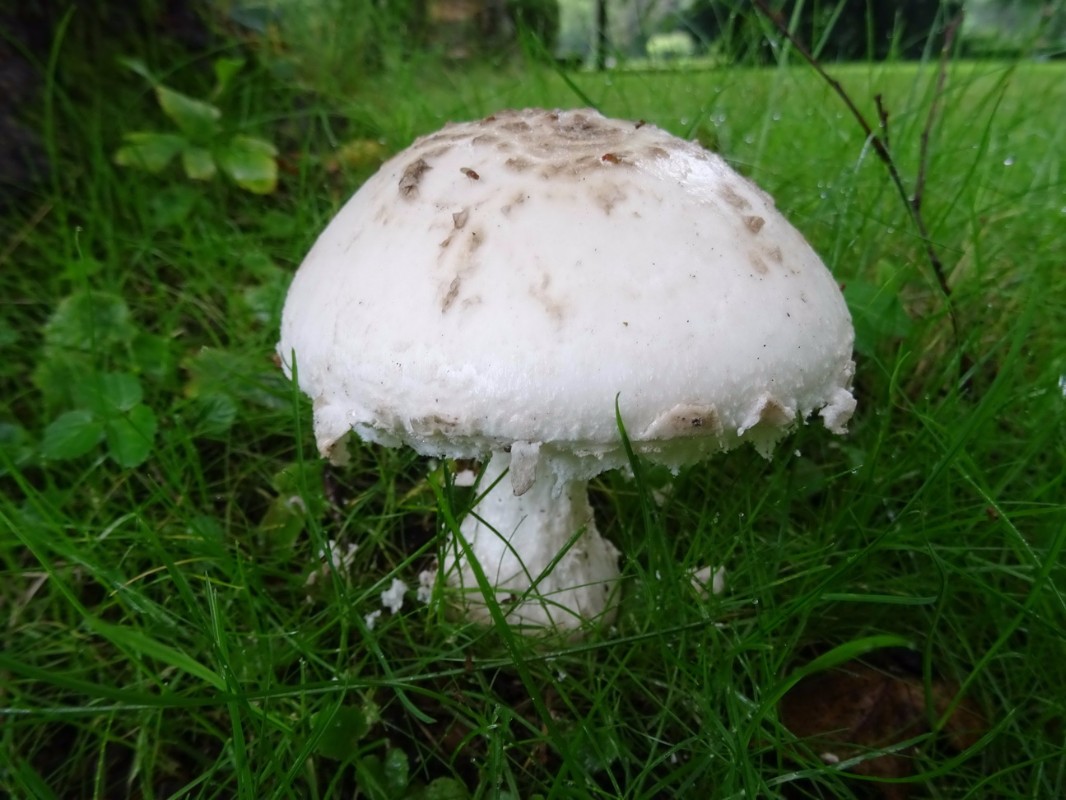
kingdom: Fungi
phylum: Basidiomycota
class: Agaricomycetes
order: Agaricales
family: Amanitaceae
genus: Amanita
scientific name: Amanita
